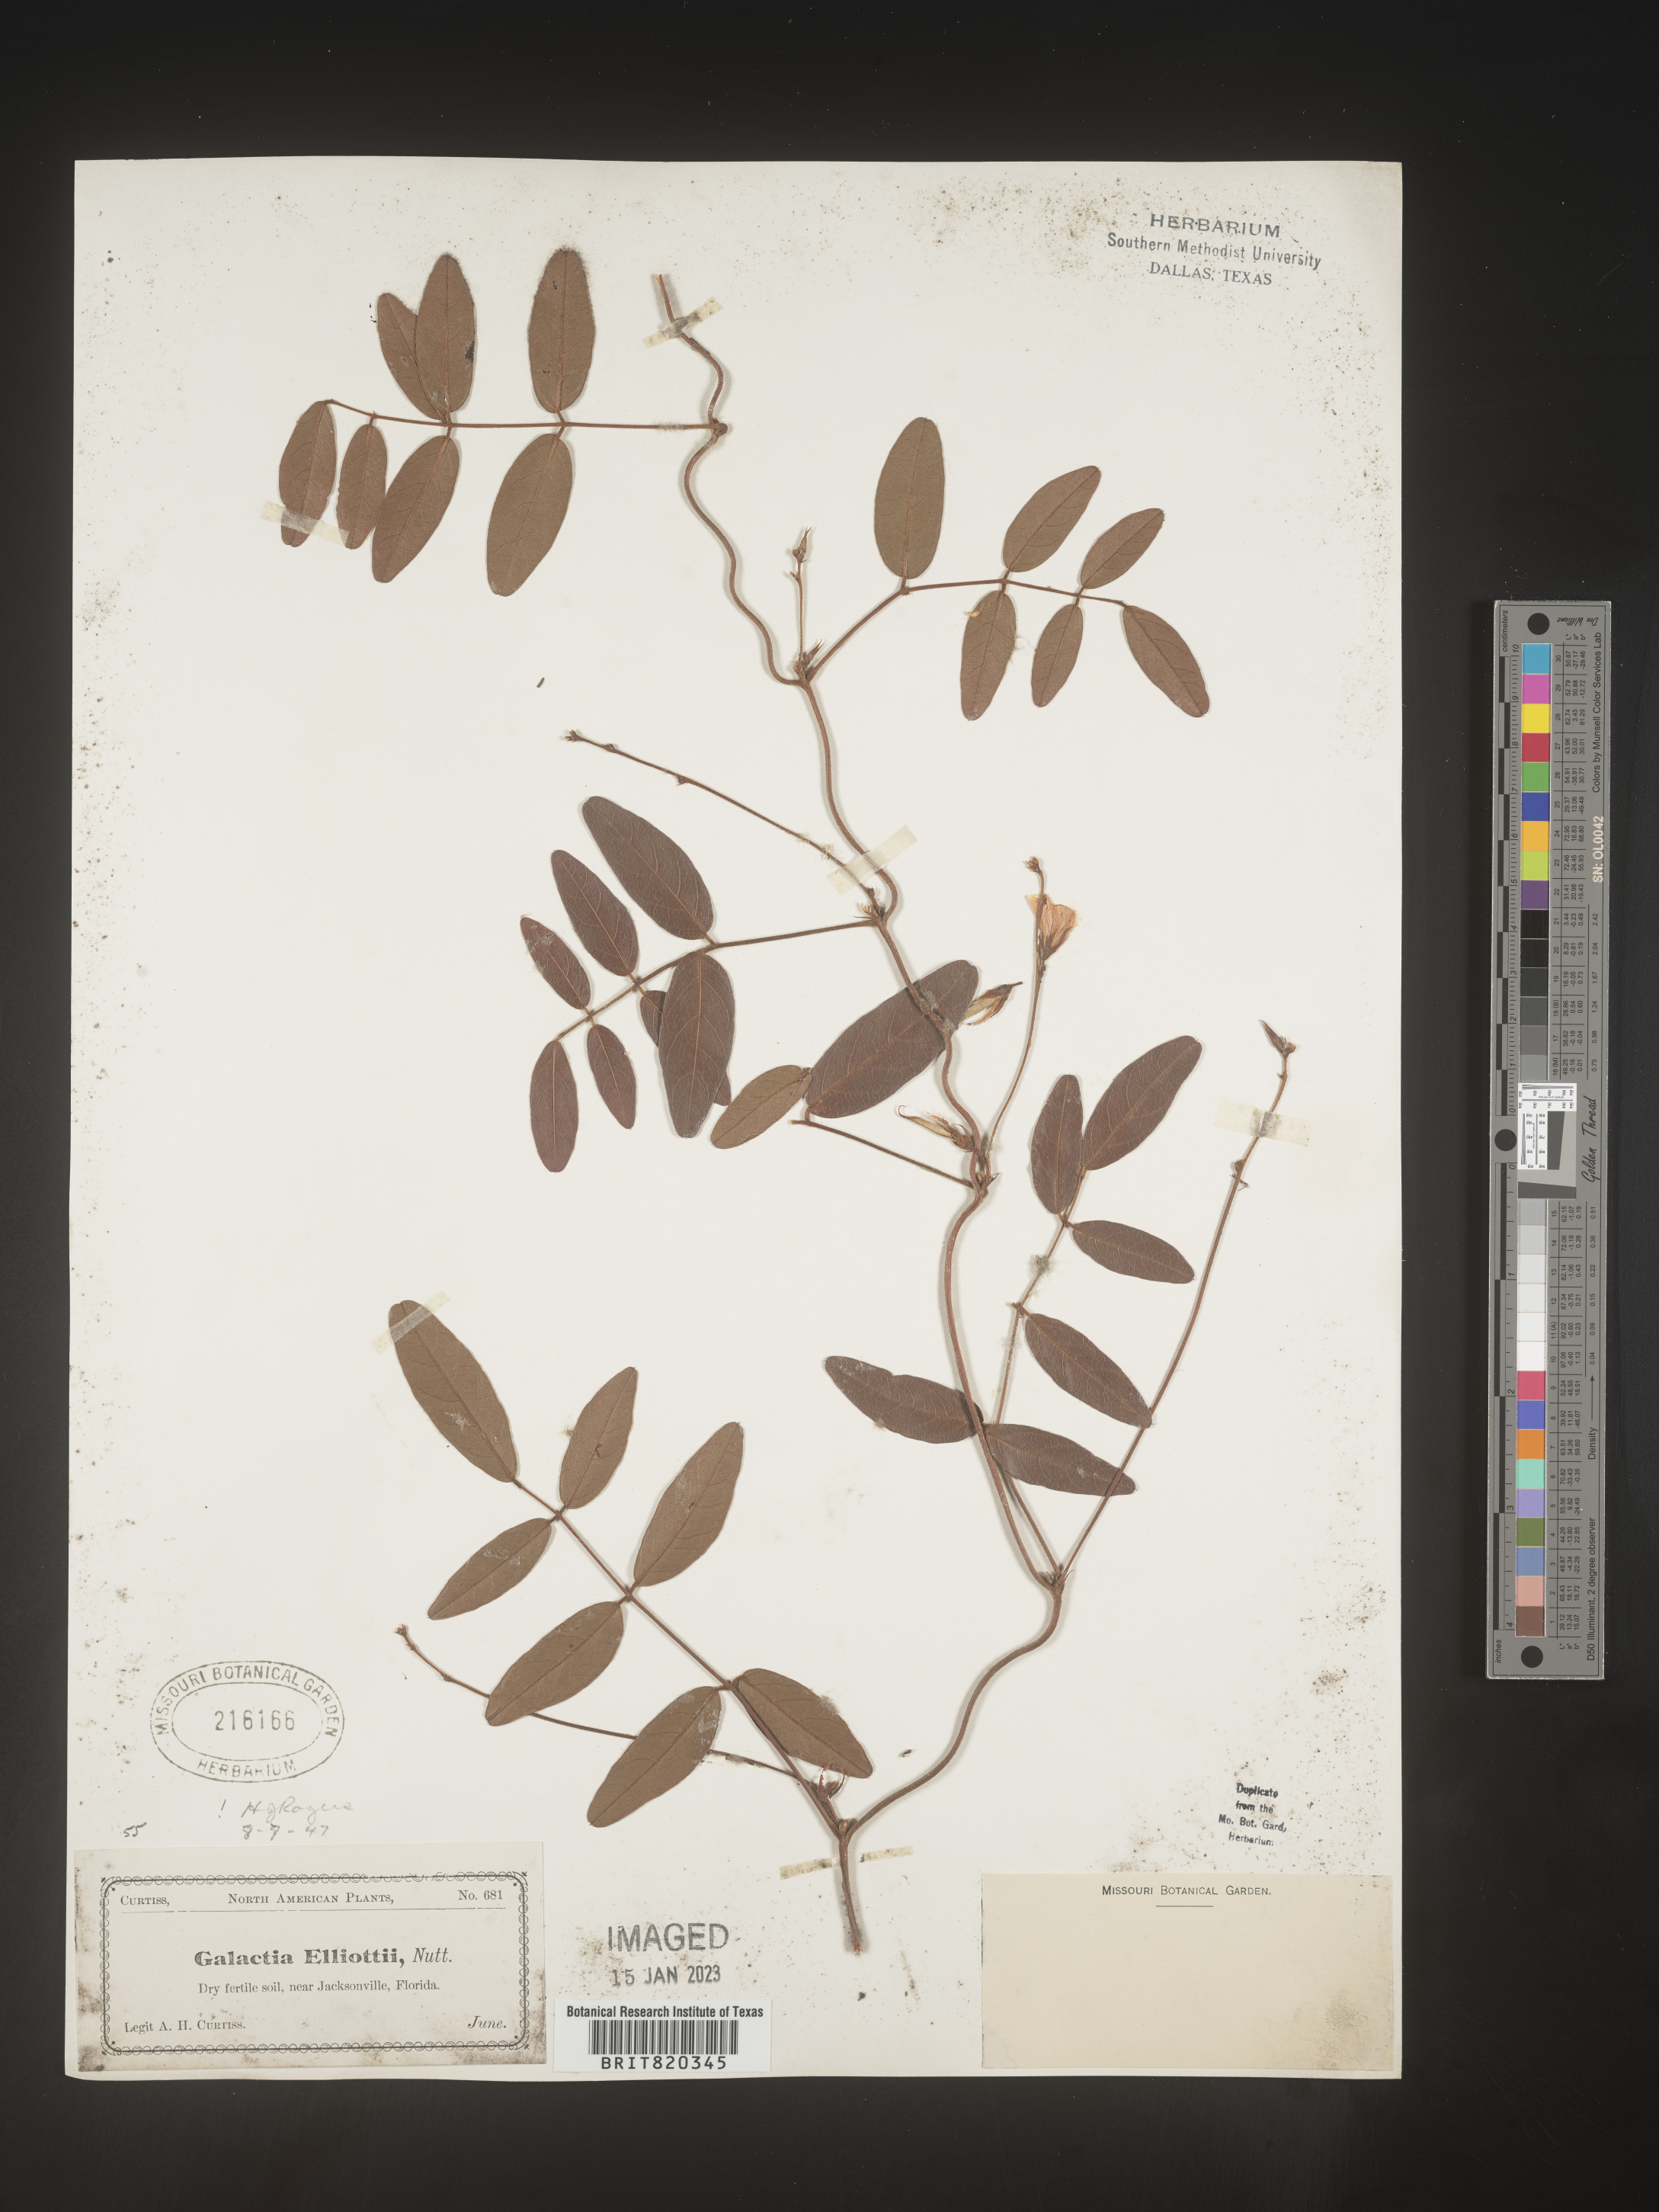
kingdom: Plantae
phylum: Tracheophyta
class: Magnoliopsida
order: Fabales
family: Fabaceae
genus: Galactia
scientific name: Galactia elliottii
